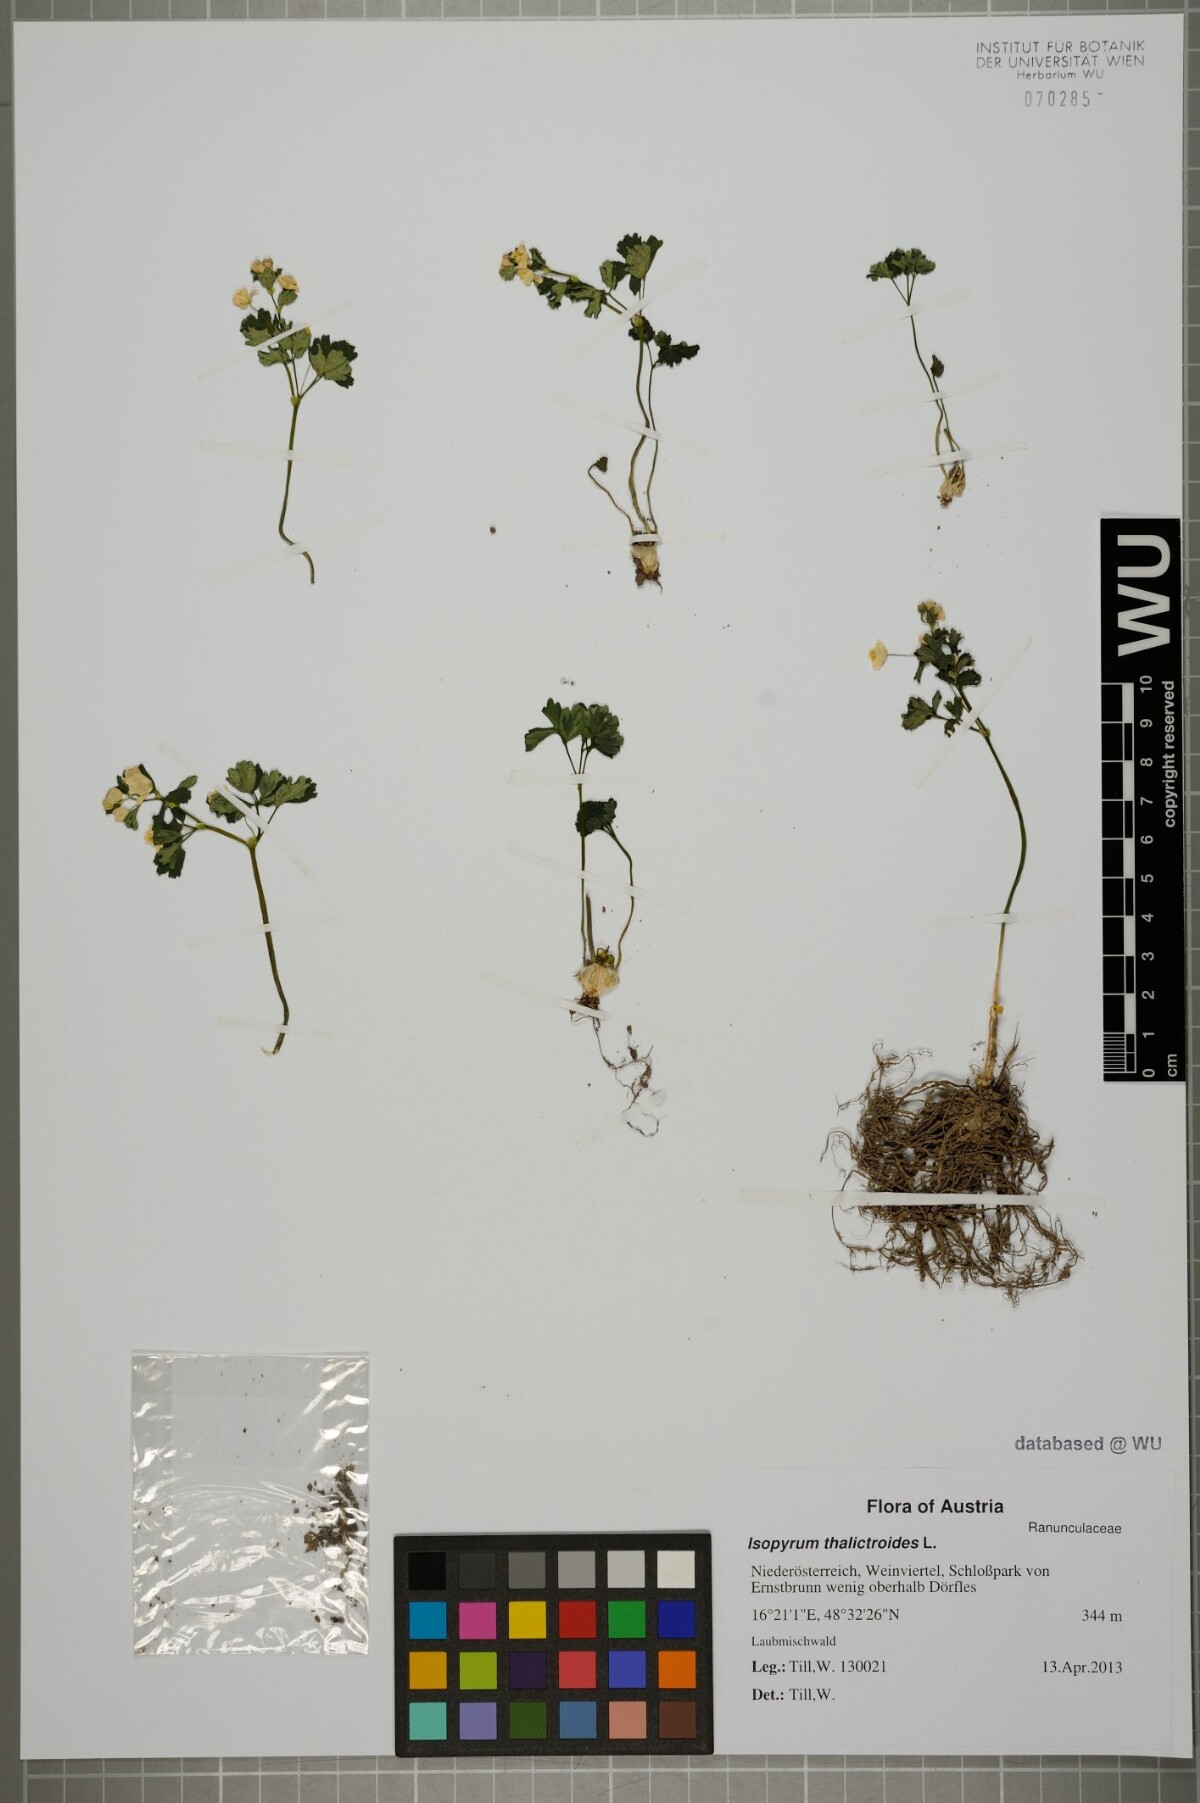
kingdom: Plantae
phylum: Tracheophyta
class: Magnoliopsida
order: Ranunculales
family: Ranunculaceae
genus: Isopyrum
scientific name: Isopyrum thalictroides
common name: Isopyrum
